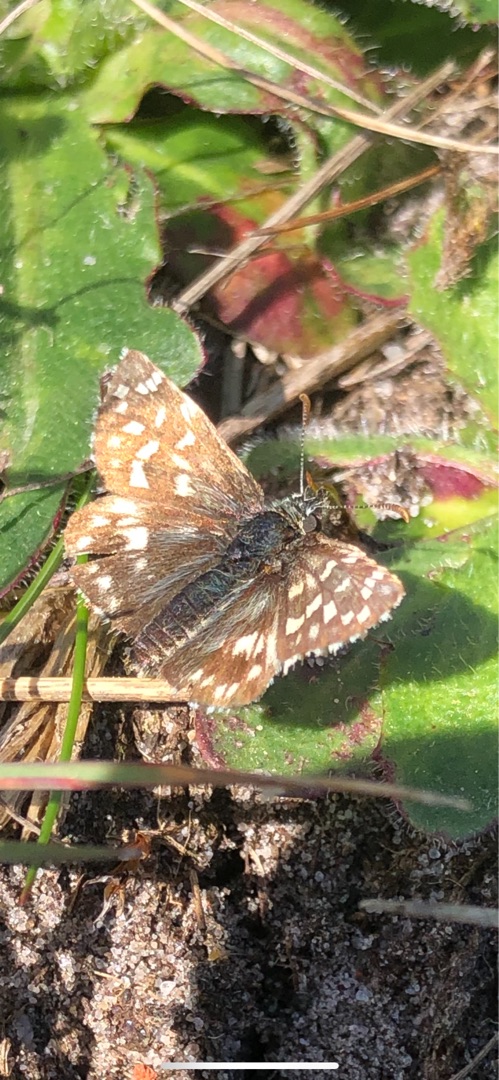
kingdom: Animalia
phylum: Arthropoda
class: Insecta
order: Lepidoptera
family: Hesperiidae
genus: Pyrgus
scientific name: Pyrgus malvae
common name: Spættet bredpande
